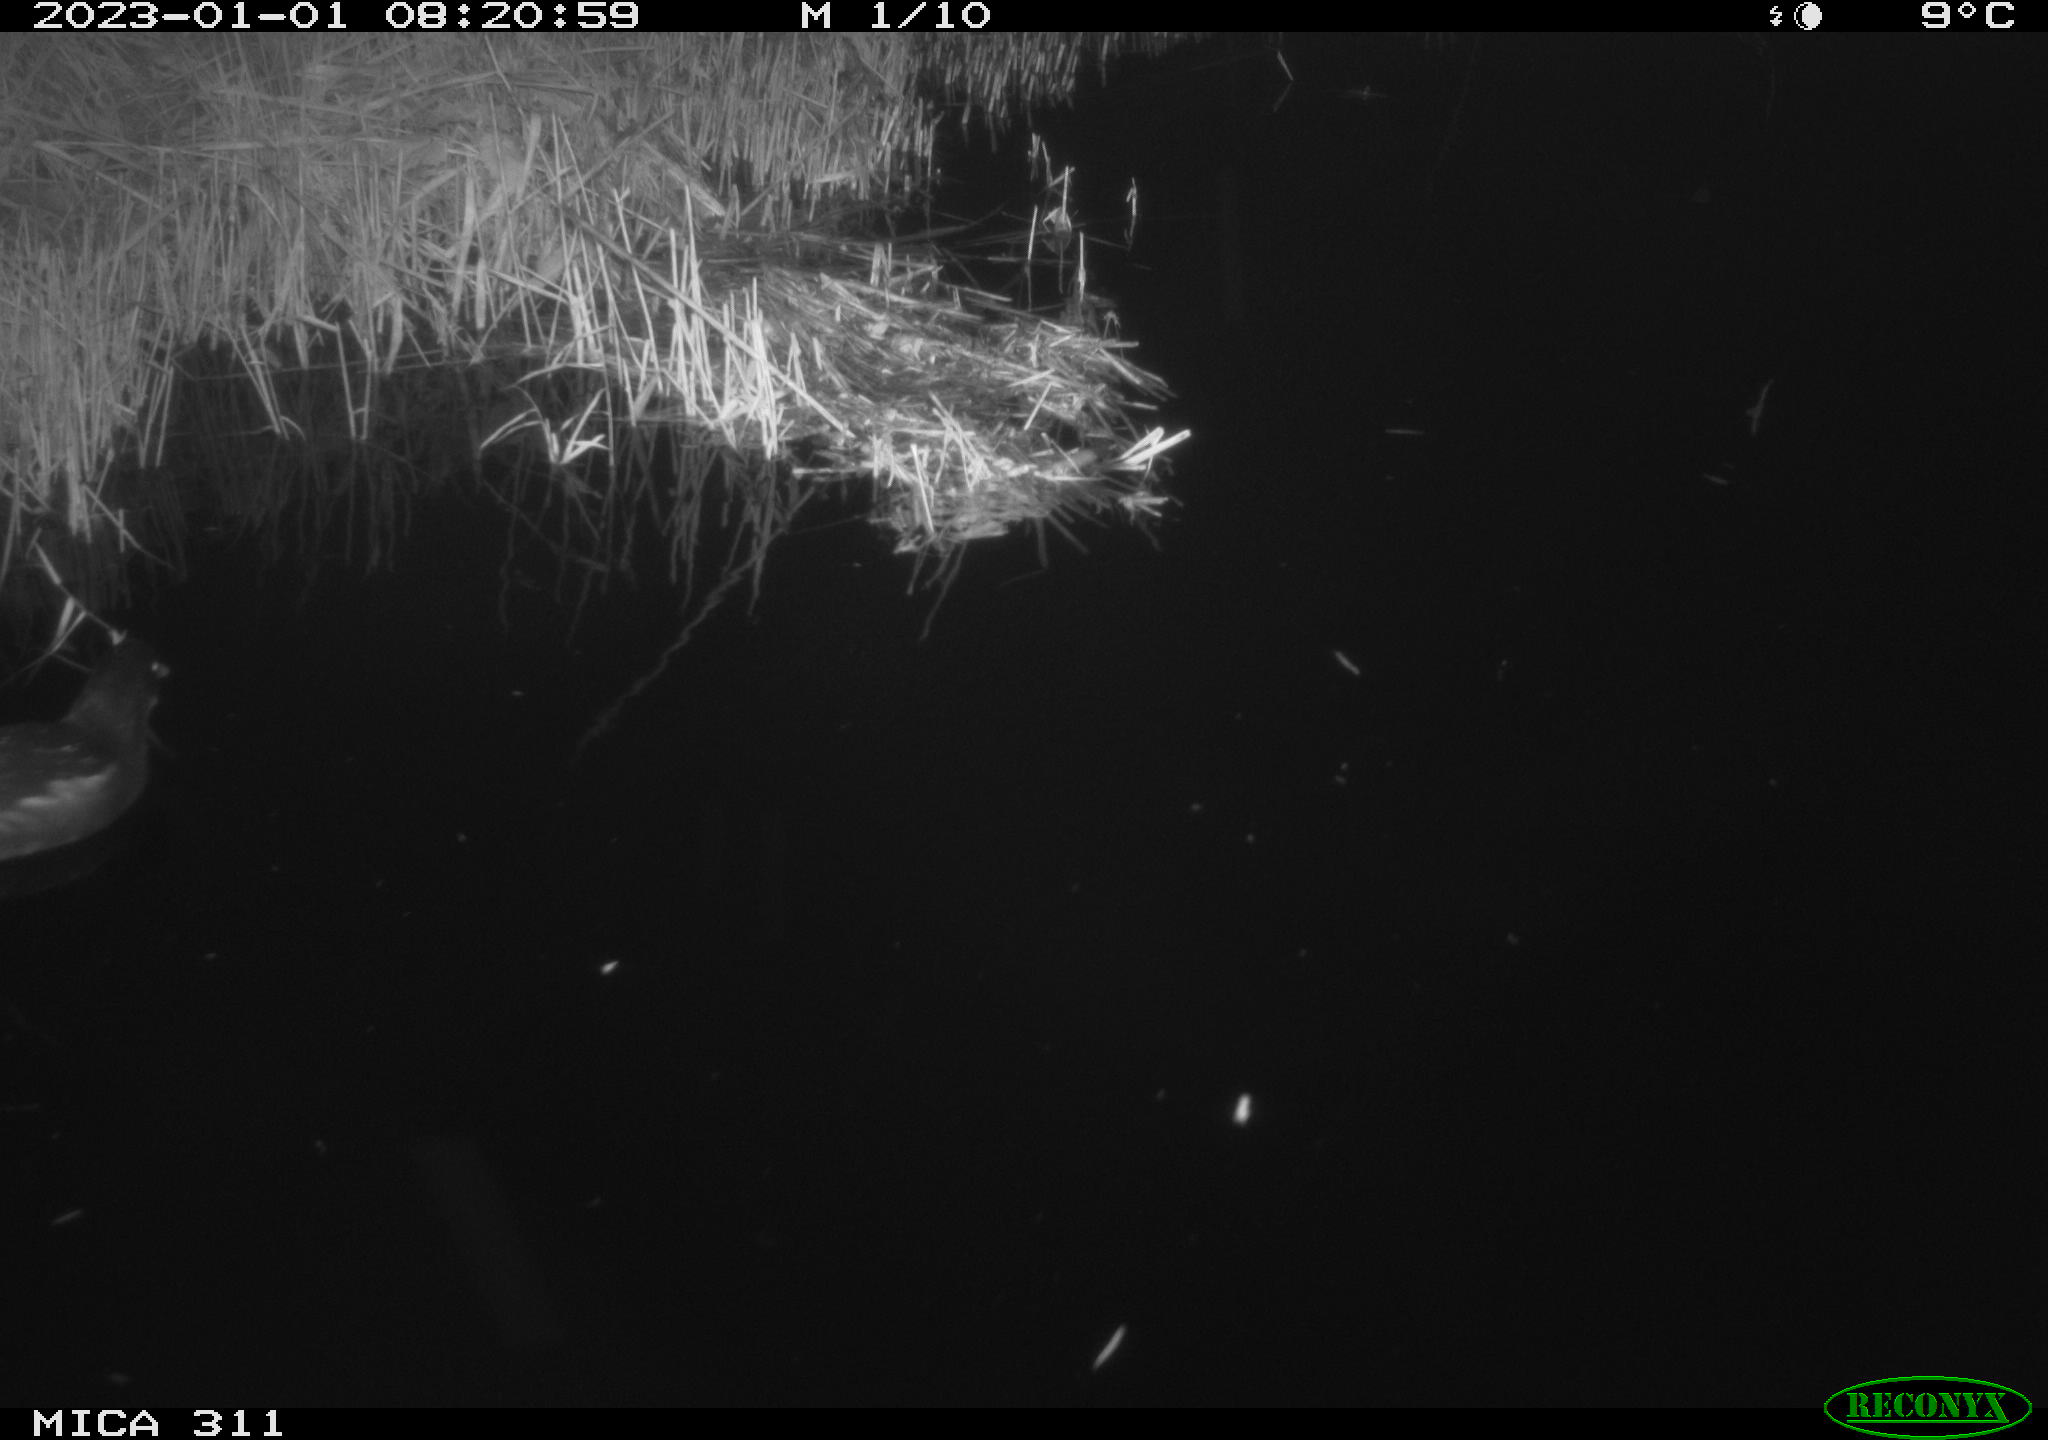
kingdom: Animalia
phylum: Chordata
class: Aves
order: Gruiformes
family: Rallidae
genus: Gallinula
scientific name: Gallinula chloropus
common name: Common moorhen
